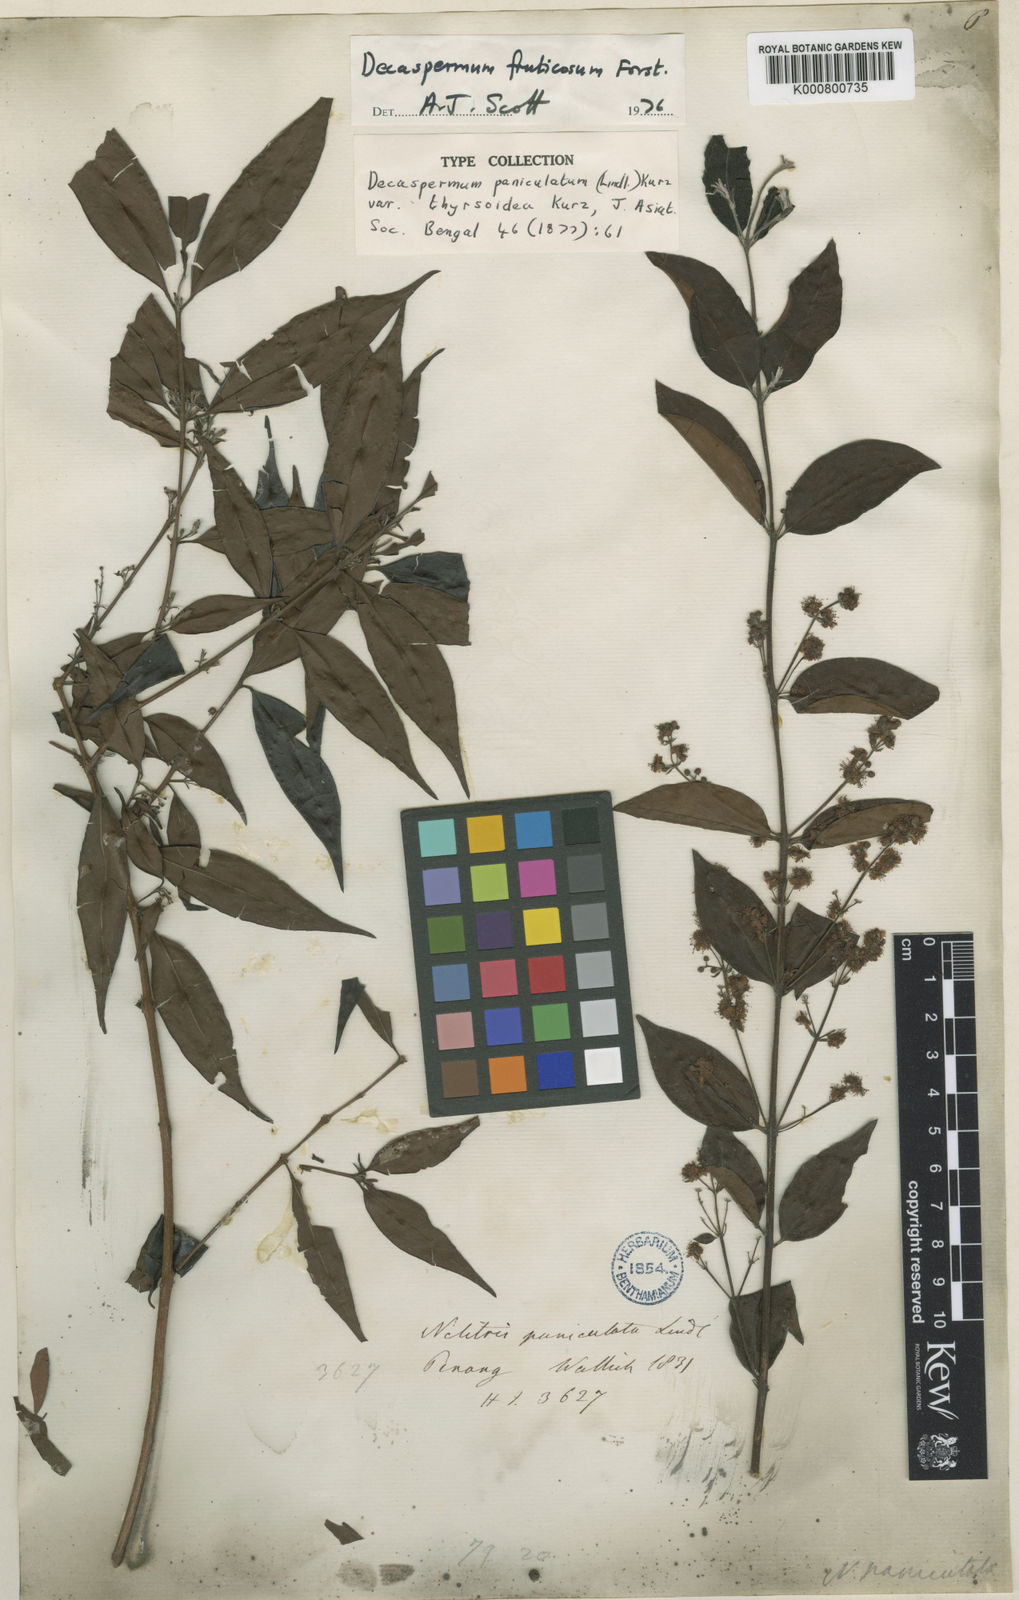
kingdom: Plantae
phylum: Tracheophyta
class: Magnoliopsida
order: Myrtales
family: Myrtaceae
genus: Decaspermum
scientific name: Decaspermum parviflorum
